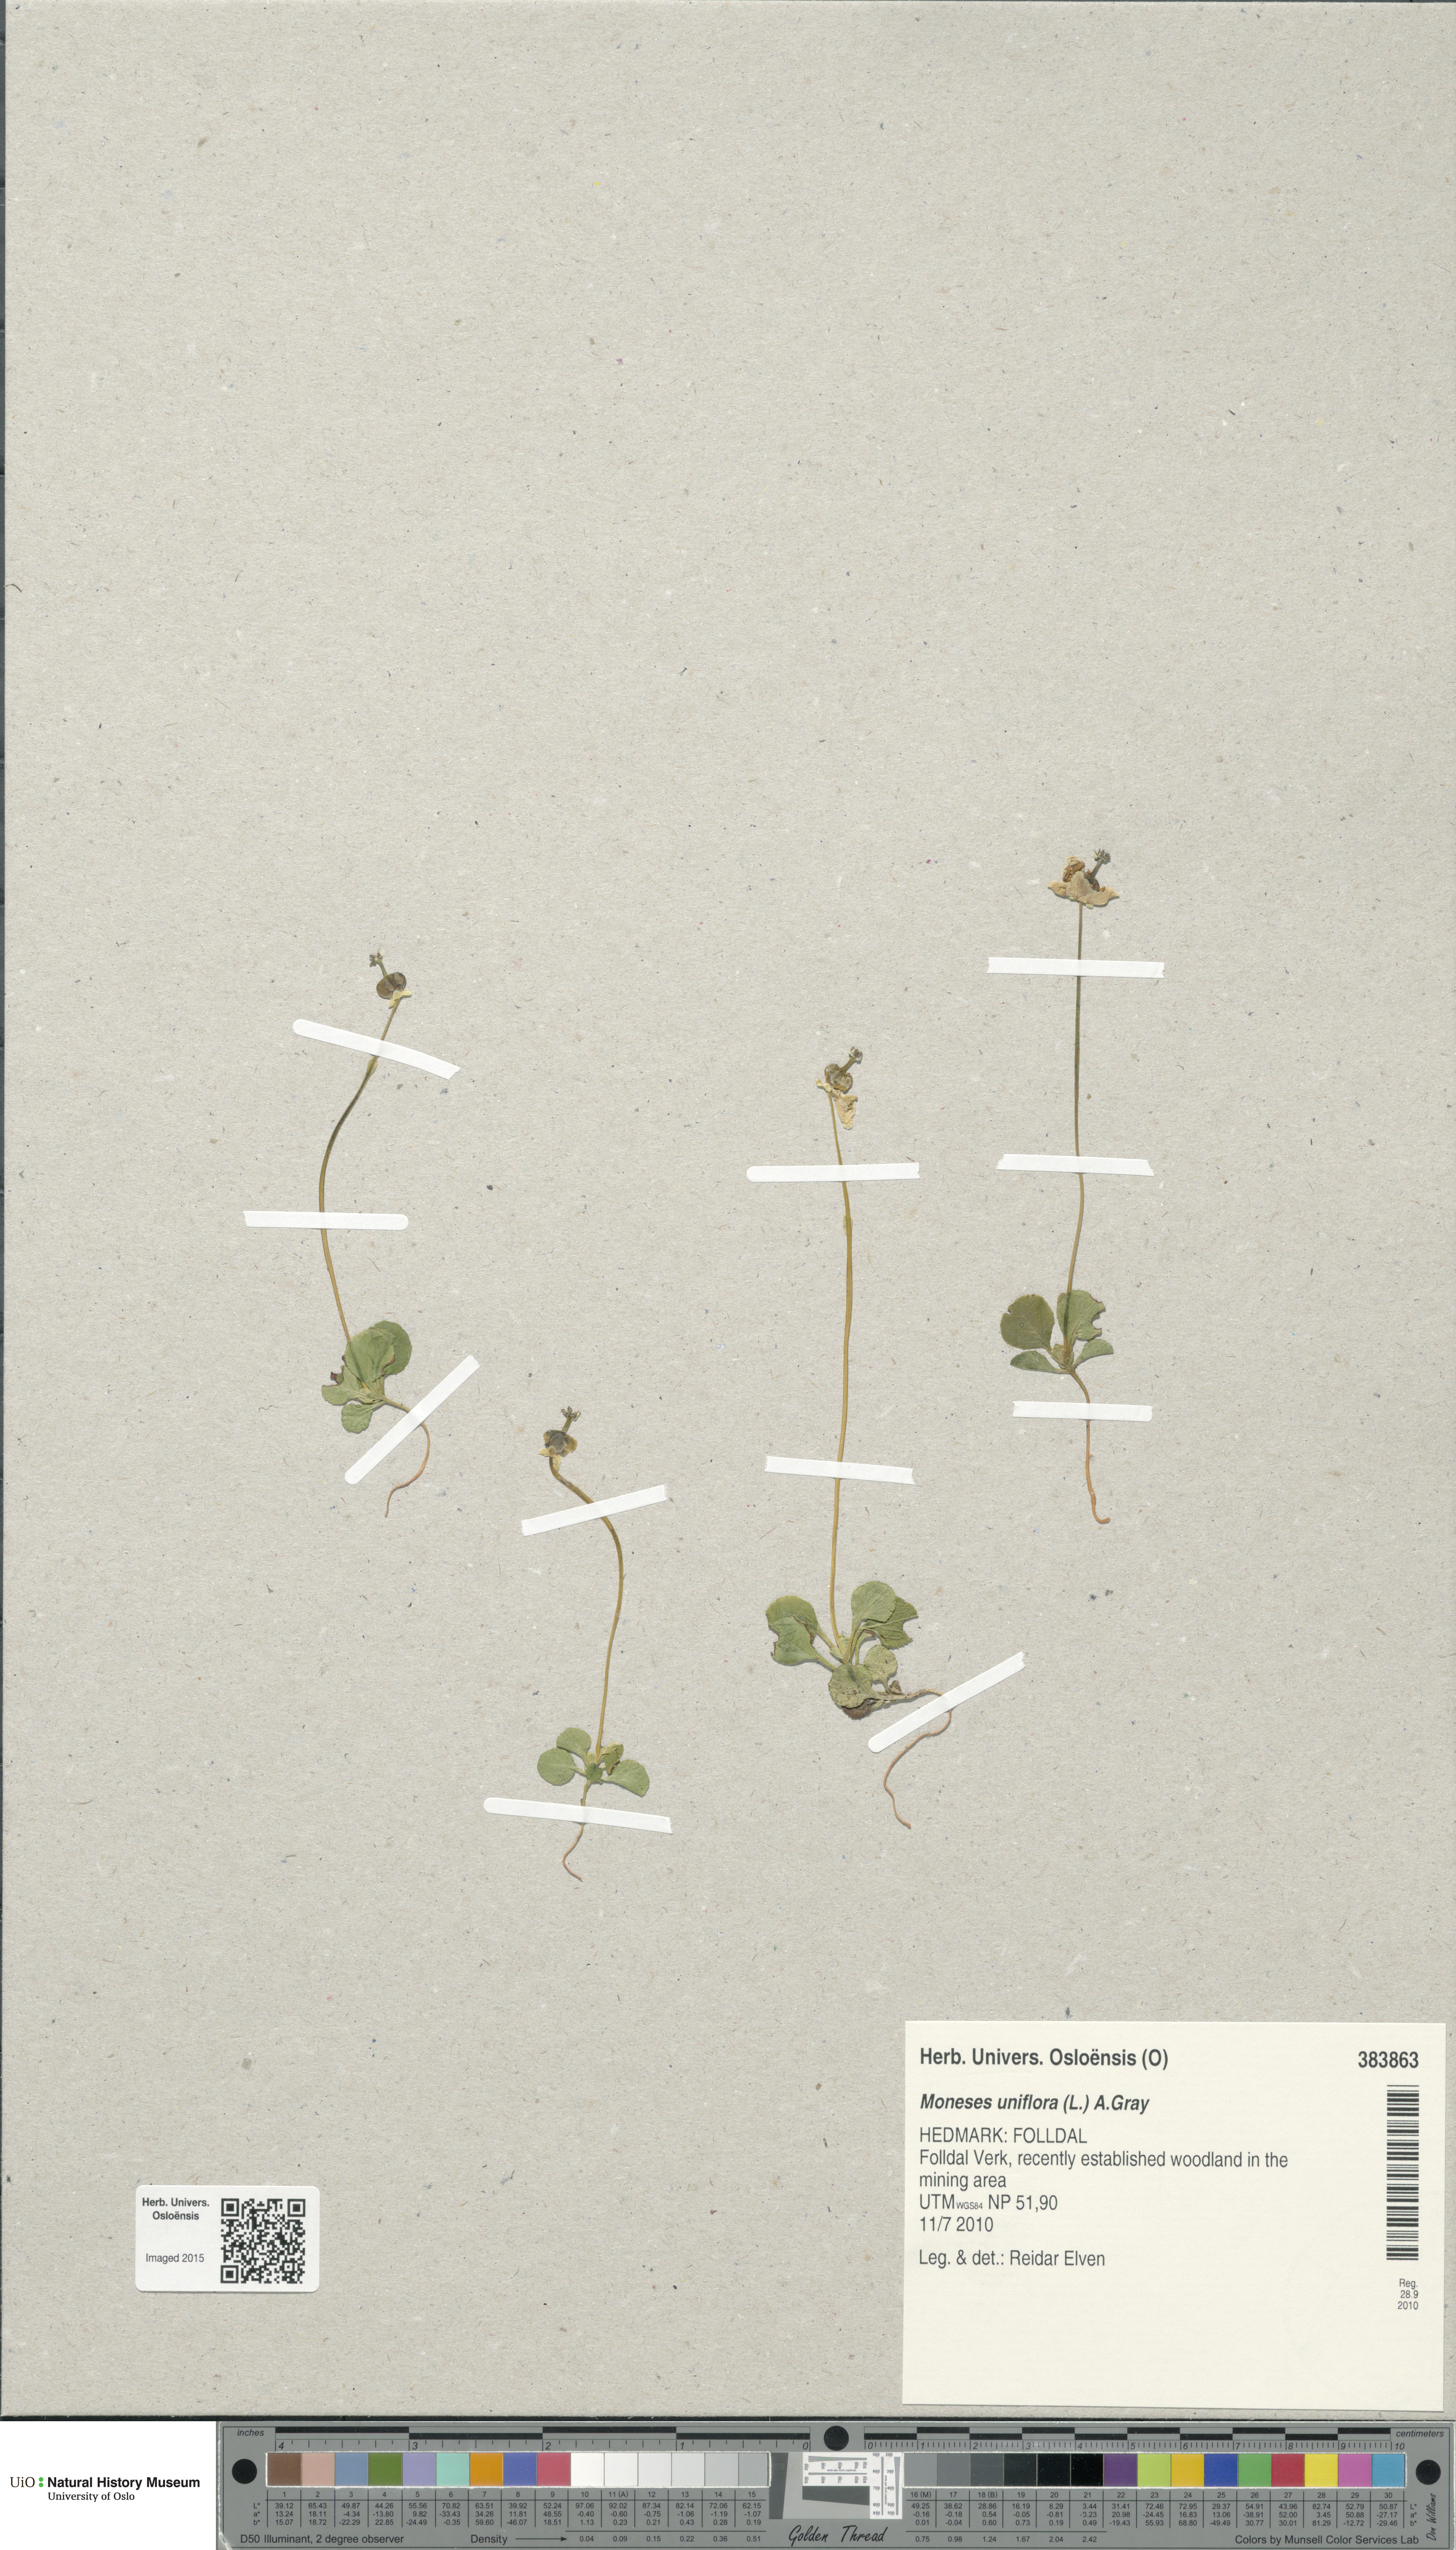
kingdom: Plantae
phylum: Tracheophyta
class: Magnoliopsida
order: Ericales
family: Ericaceae
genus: Moneses
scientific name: Moneses uniflora
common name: One-flowered wintergreen
